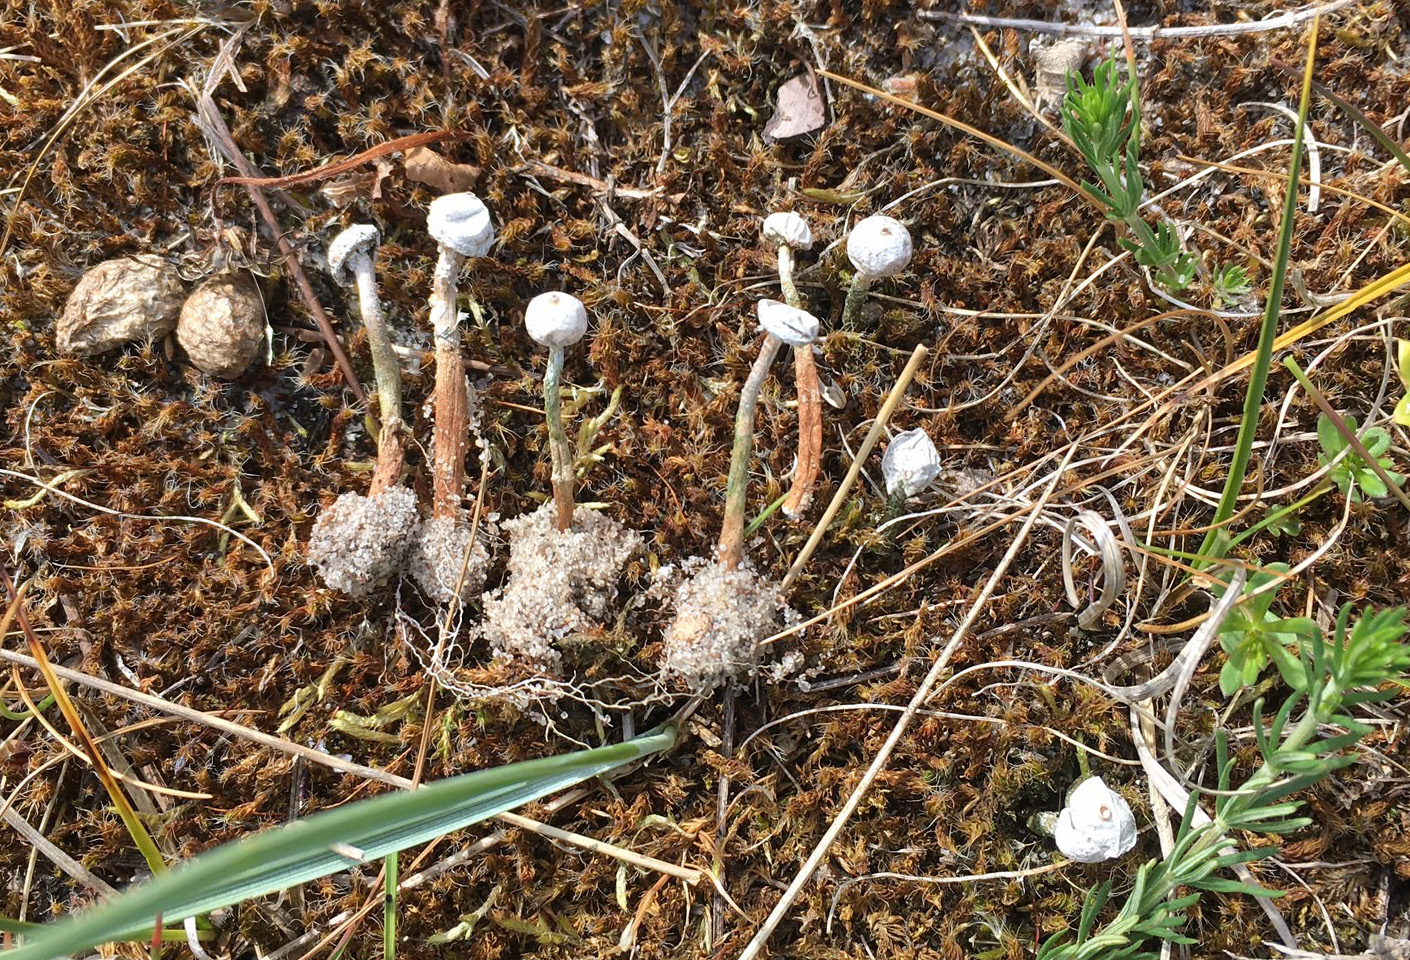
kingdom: Fungi
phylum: Basidiomycota
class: Agaricomycetes
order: Agaricales
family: Agaricaceae
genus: Tulostoma
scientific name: Tulostoma brumale
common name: vinter-stilkbovist
